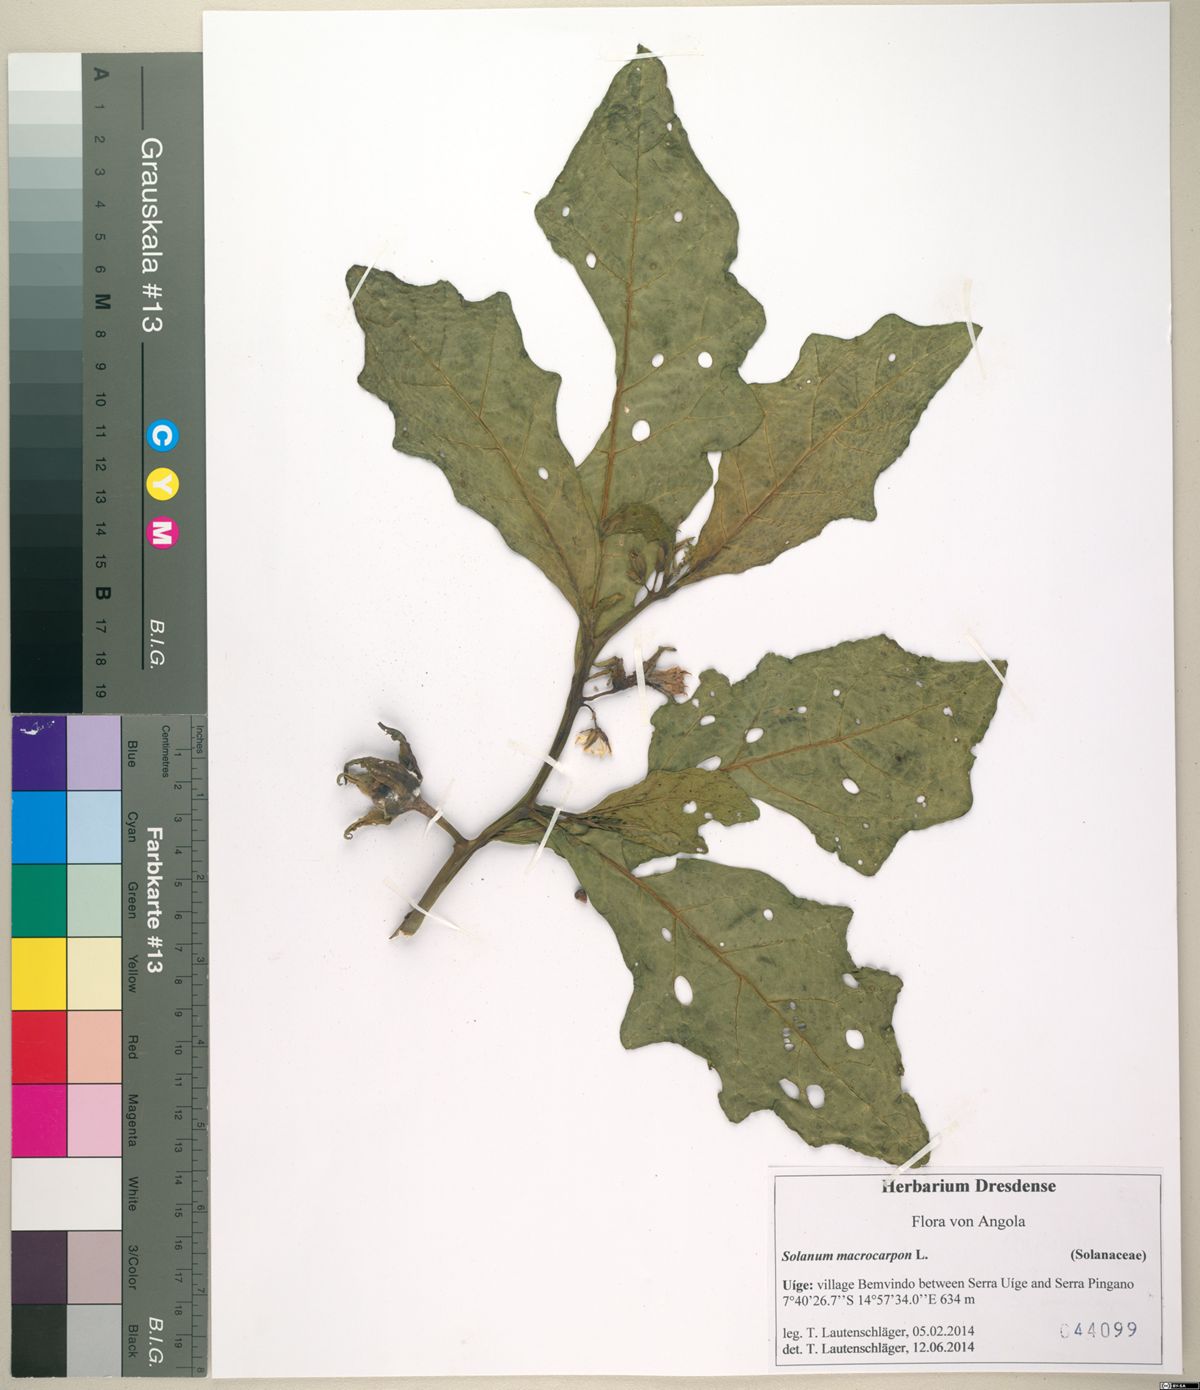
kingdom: Plantae
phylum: Tracheophyta
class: Magnoliopsida
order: Solanales
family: Solanaceae
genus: Solanum
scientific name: Solanum macrocarpon
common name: African eggplant
